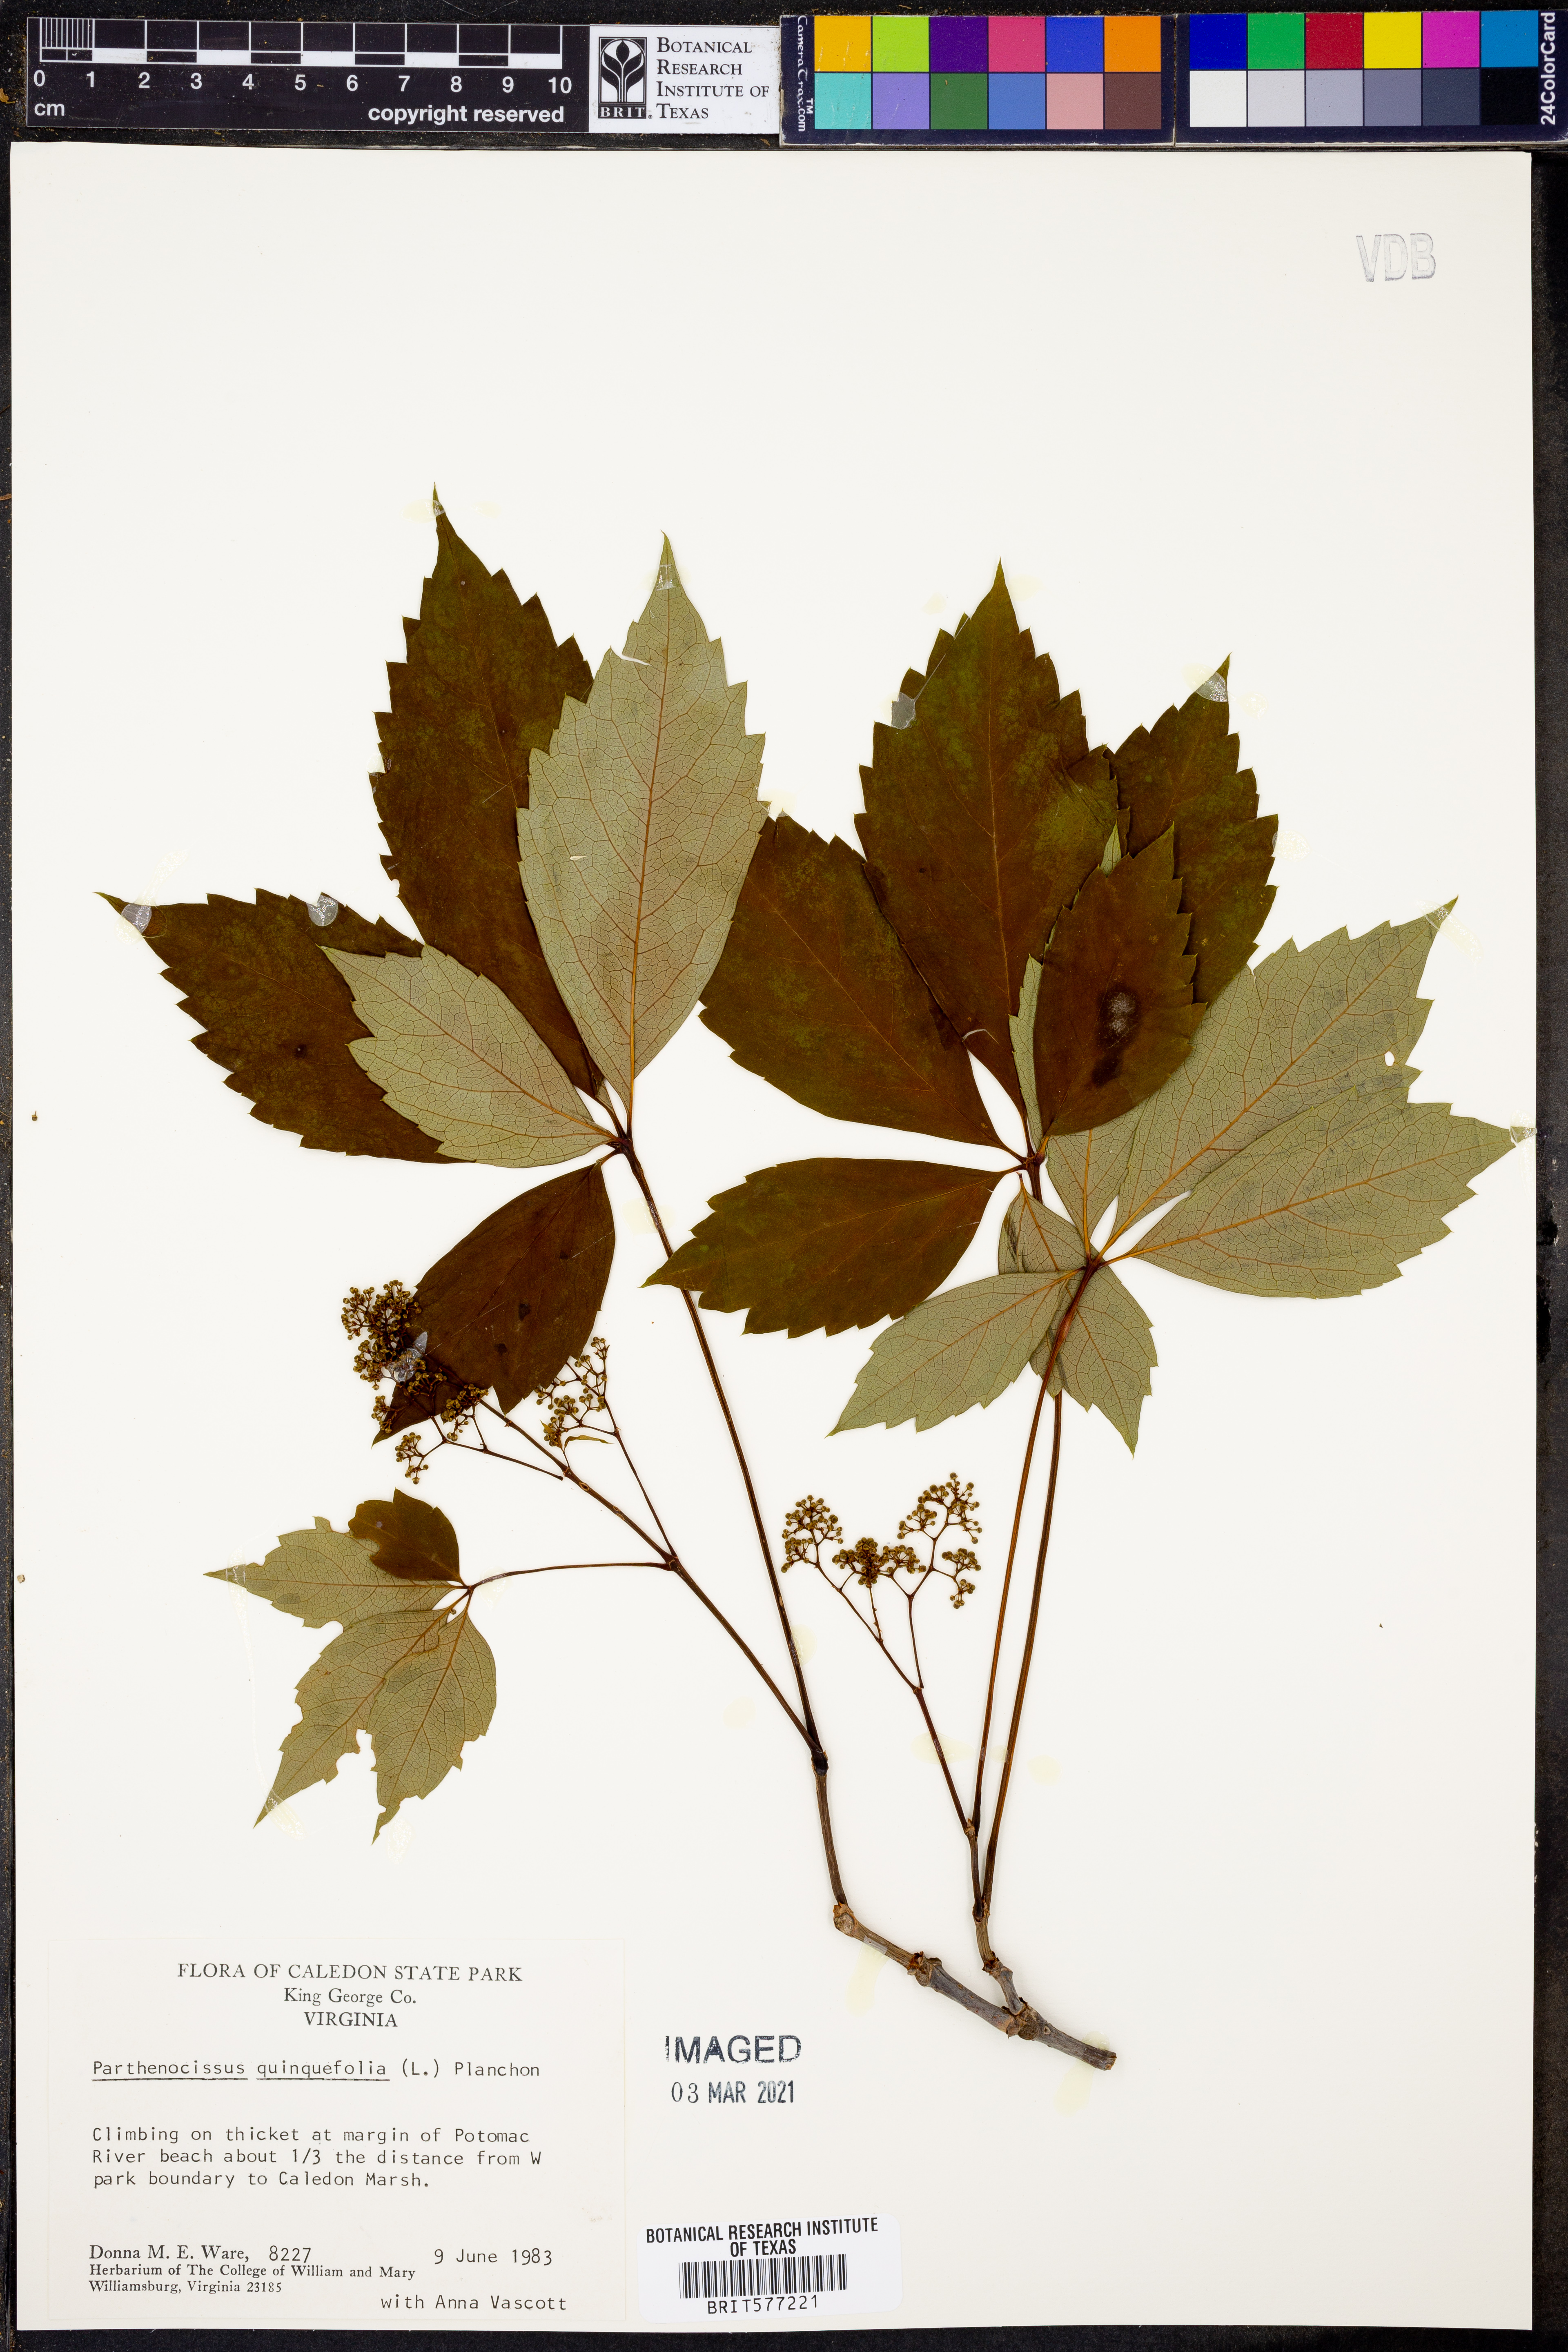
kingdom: Plantae
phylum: Tracheophyta
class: Magnoliopsida
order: Vitales
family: Vitaceae
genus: Parthenocissus
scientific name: Parthenocissus quinquefolia
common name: Virginia-creeper
